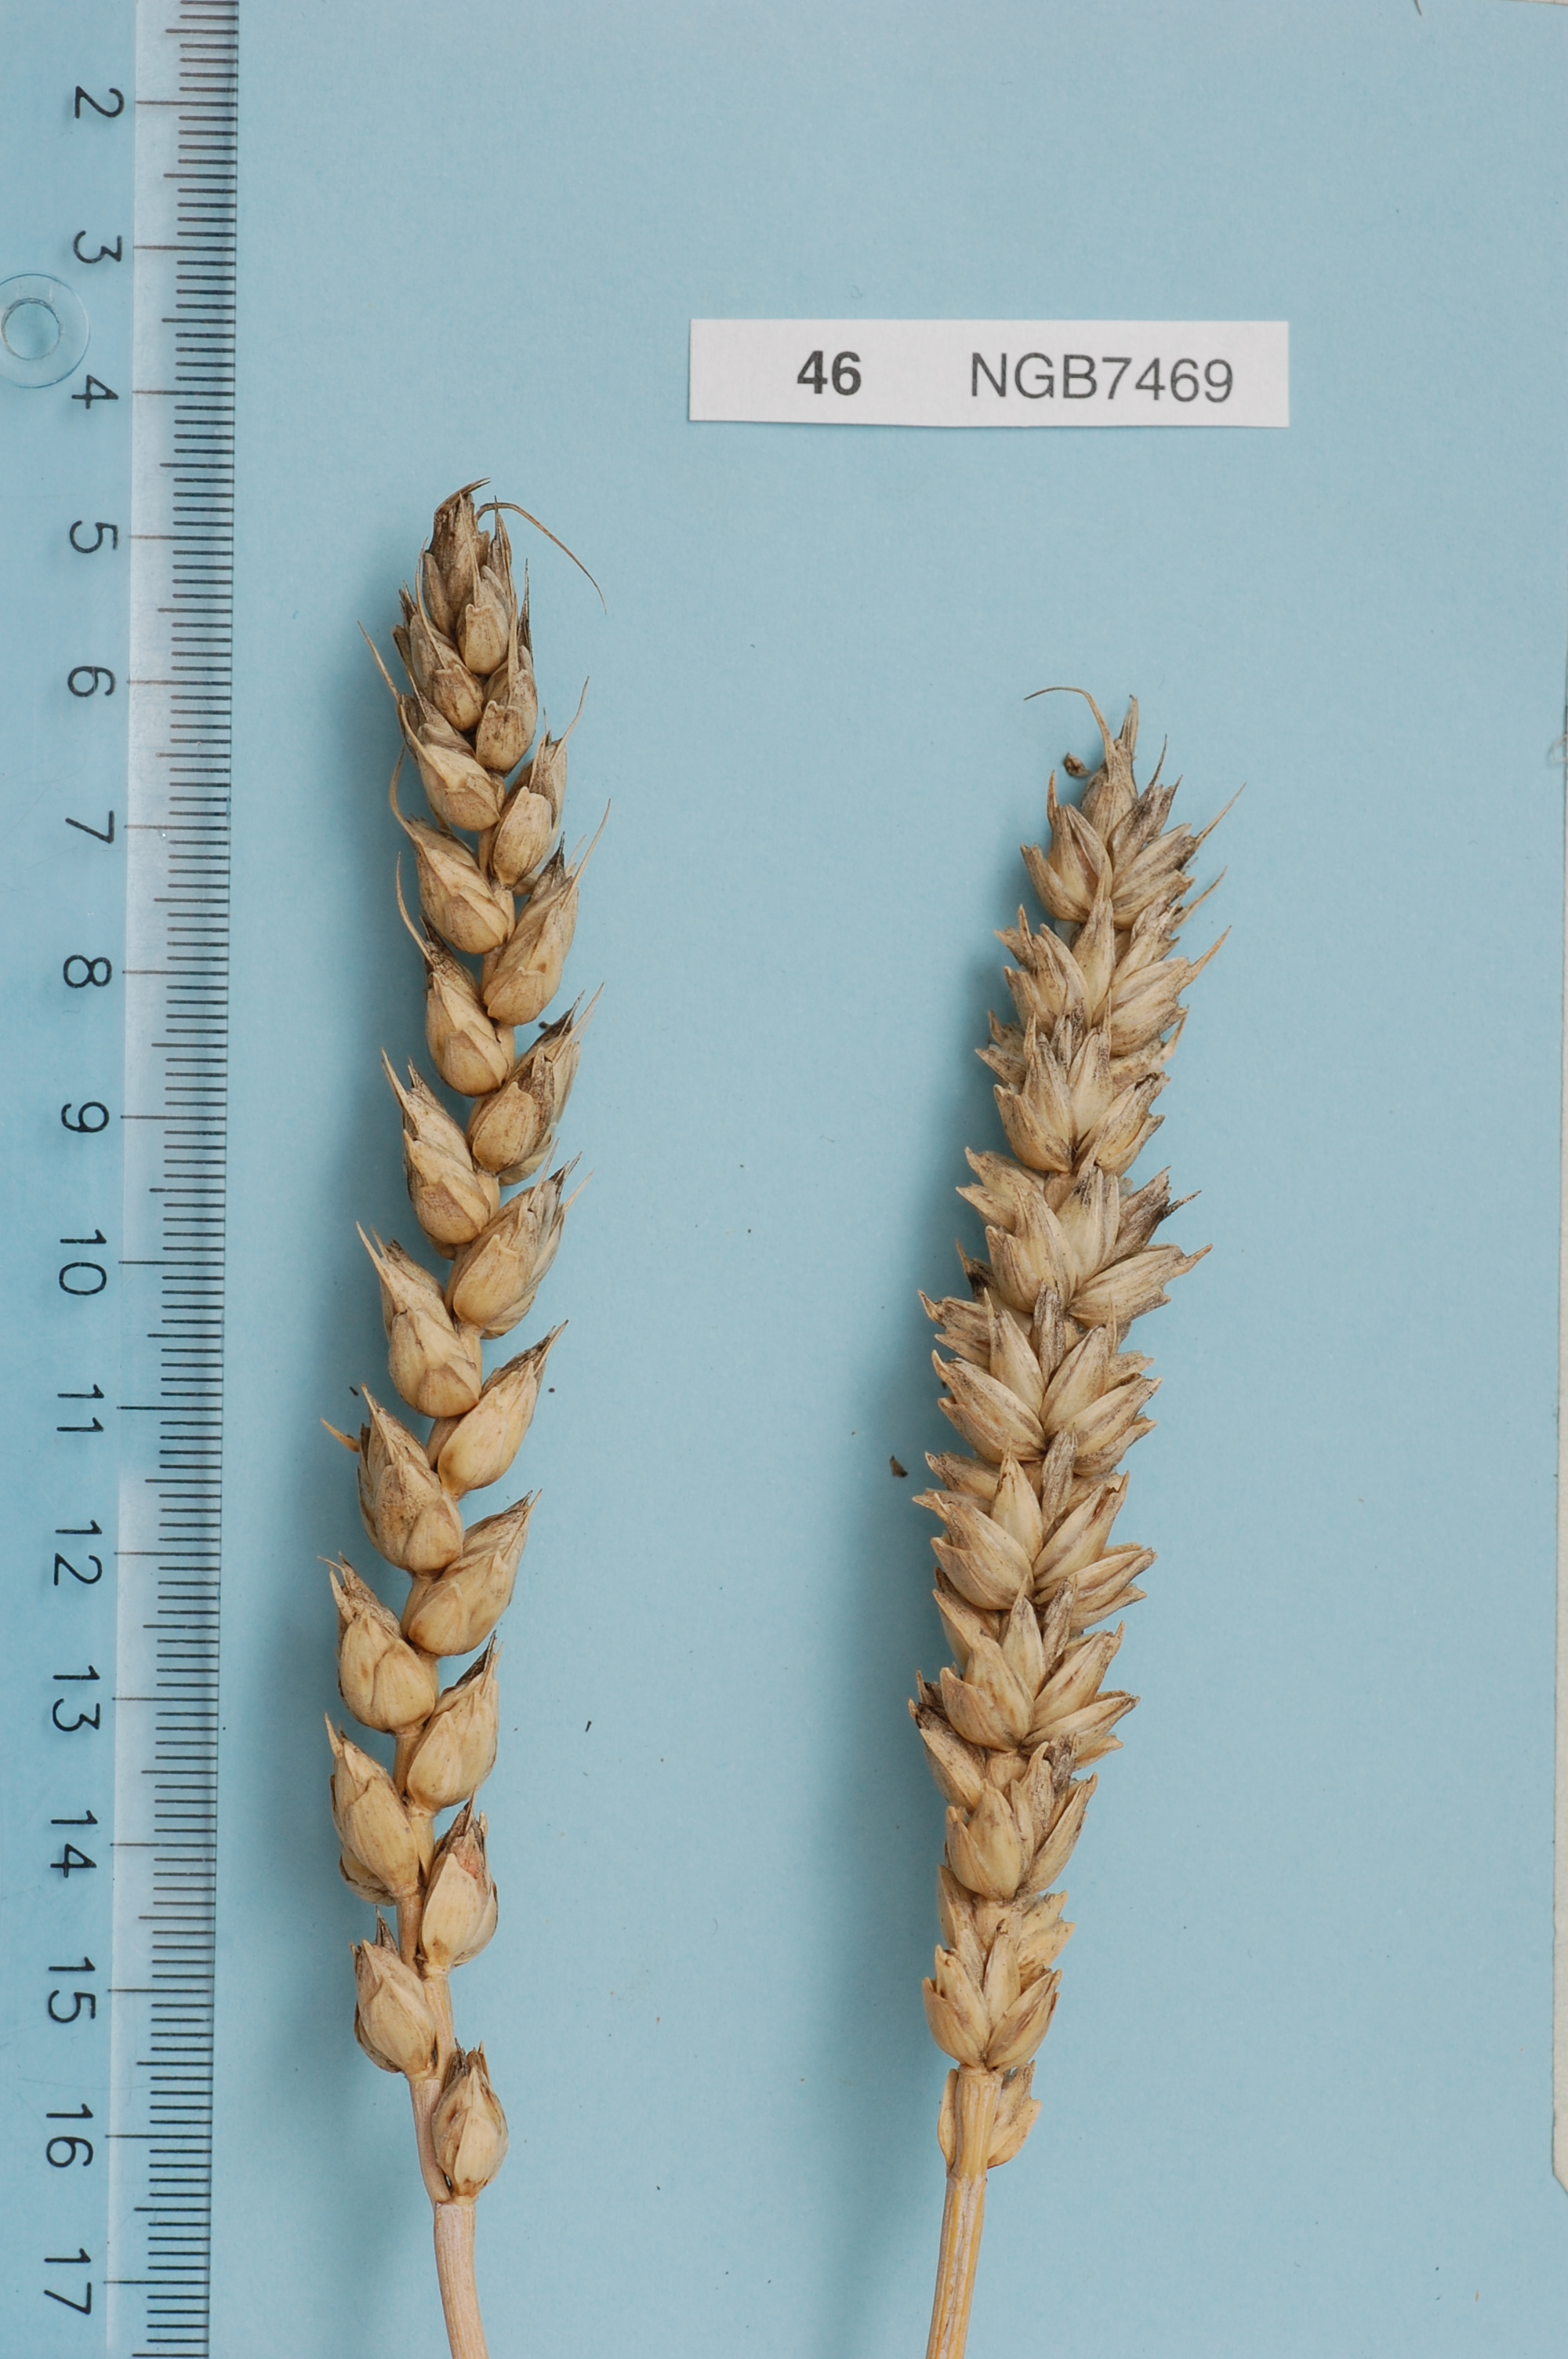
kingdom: Plantae
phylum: Tracheophyta
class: Liliopsida
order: Poales
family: Poaceae
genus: Triticum
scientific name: Triticum aestivum
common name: Common wheat
